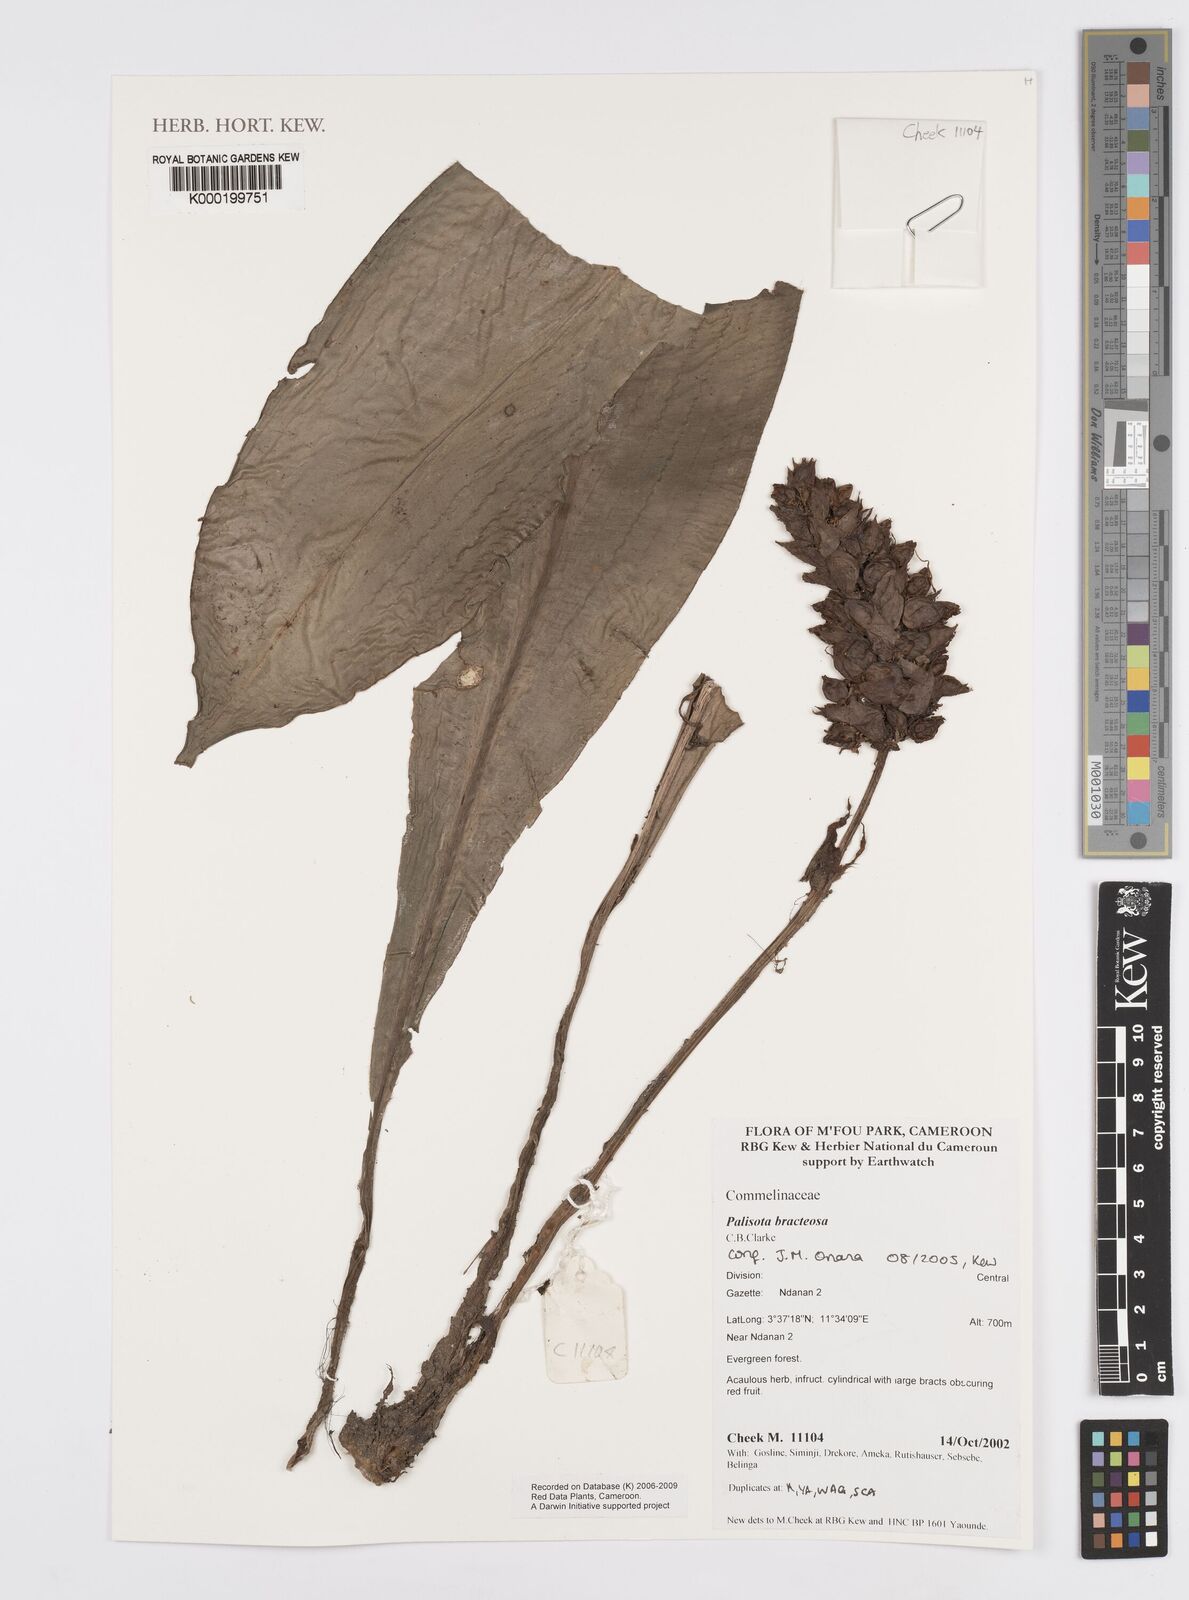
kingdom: Plantae
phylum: Tracheophyta
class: Liliopsida
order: Commelinales
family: Commelinaceae
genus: Palisota
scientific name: Palisota bracteosa
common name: Palisota
